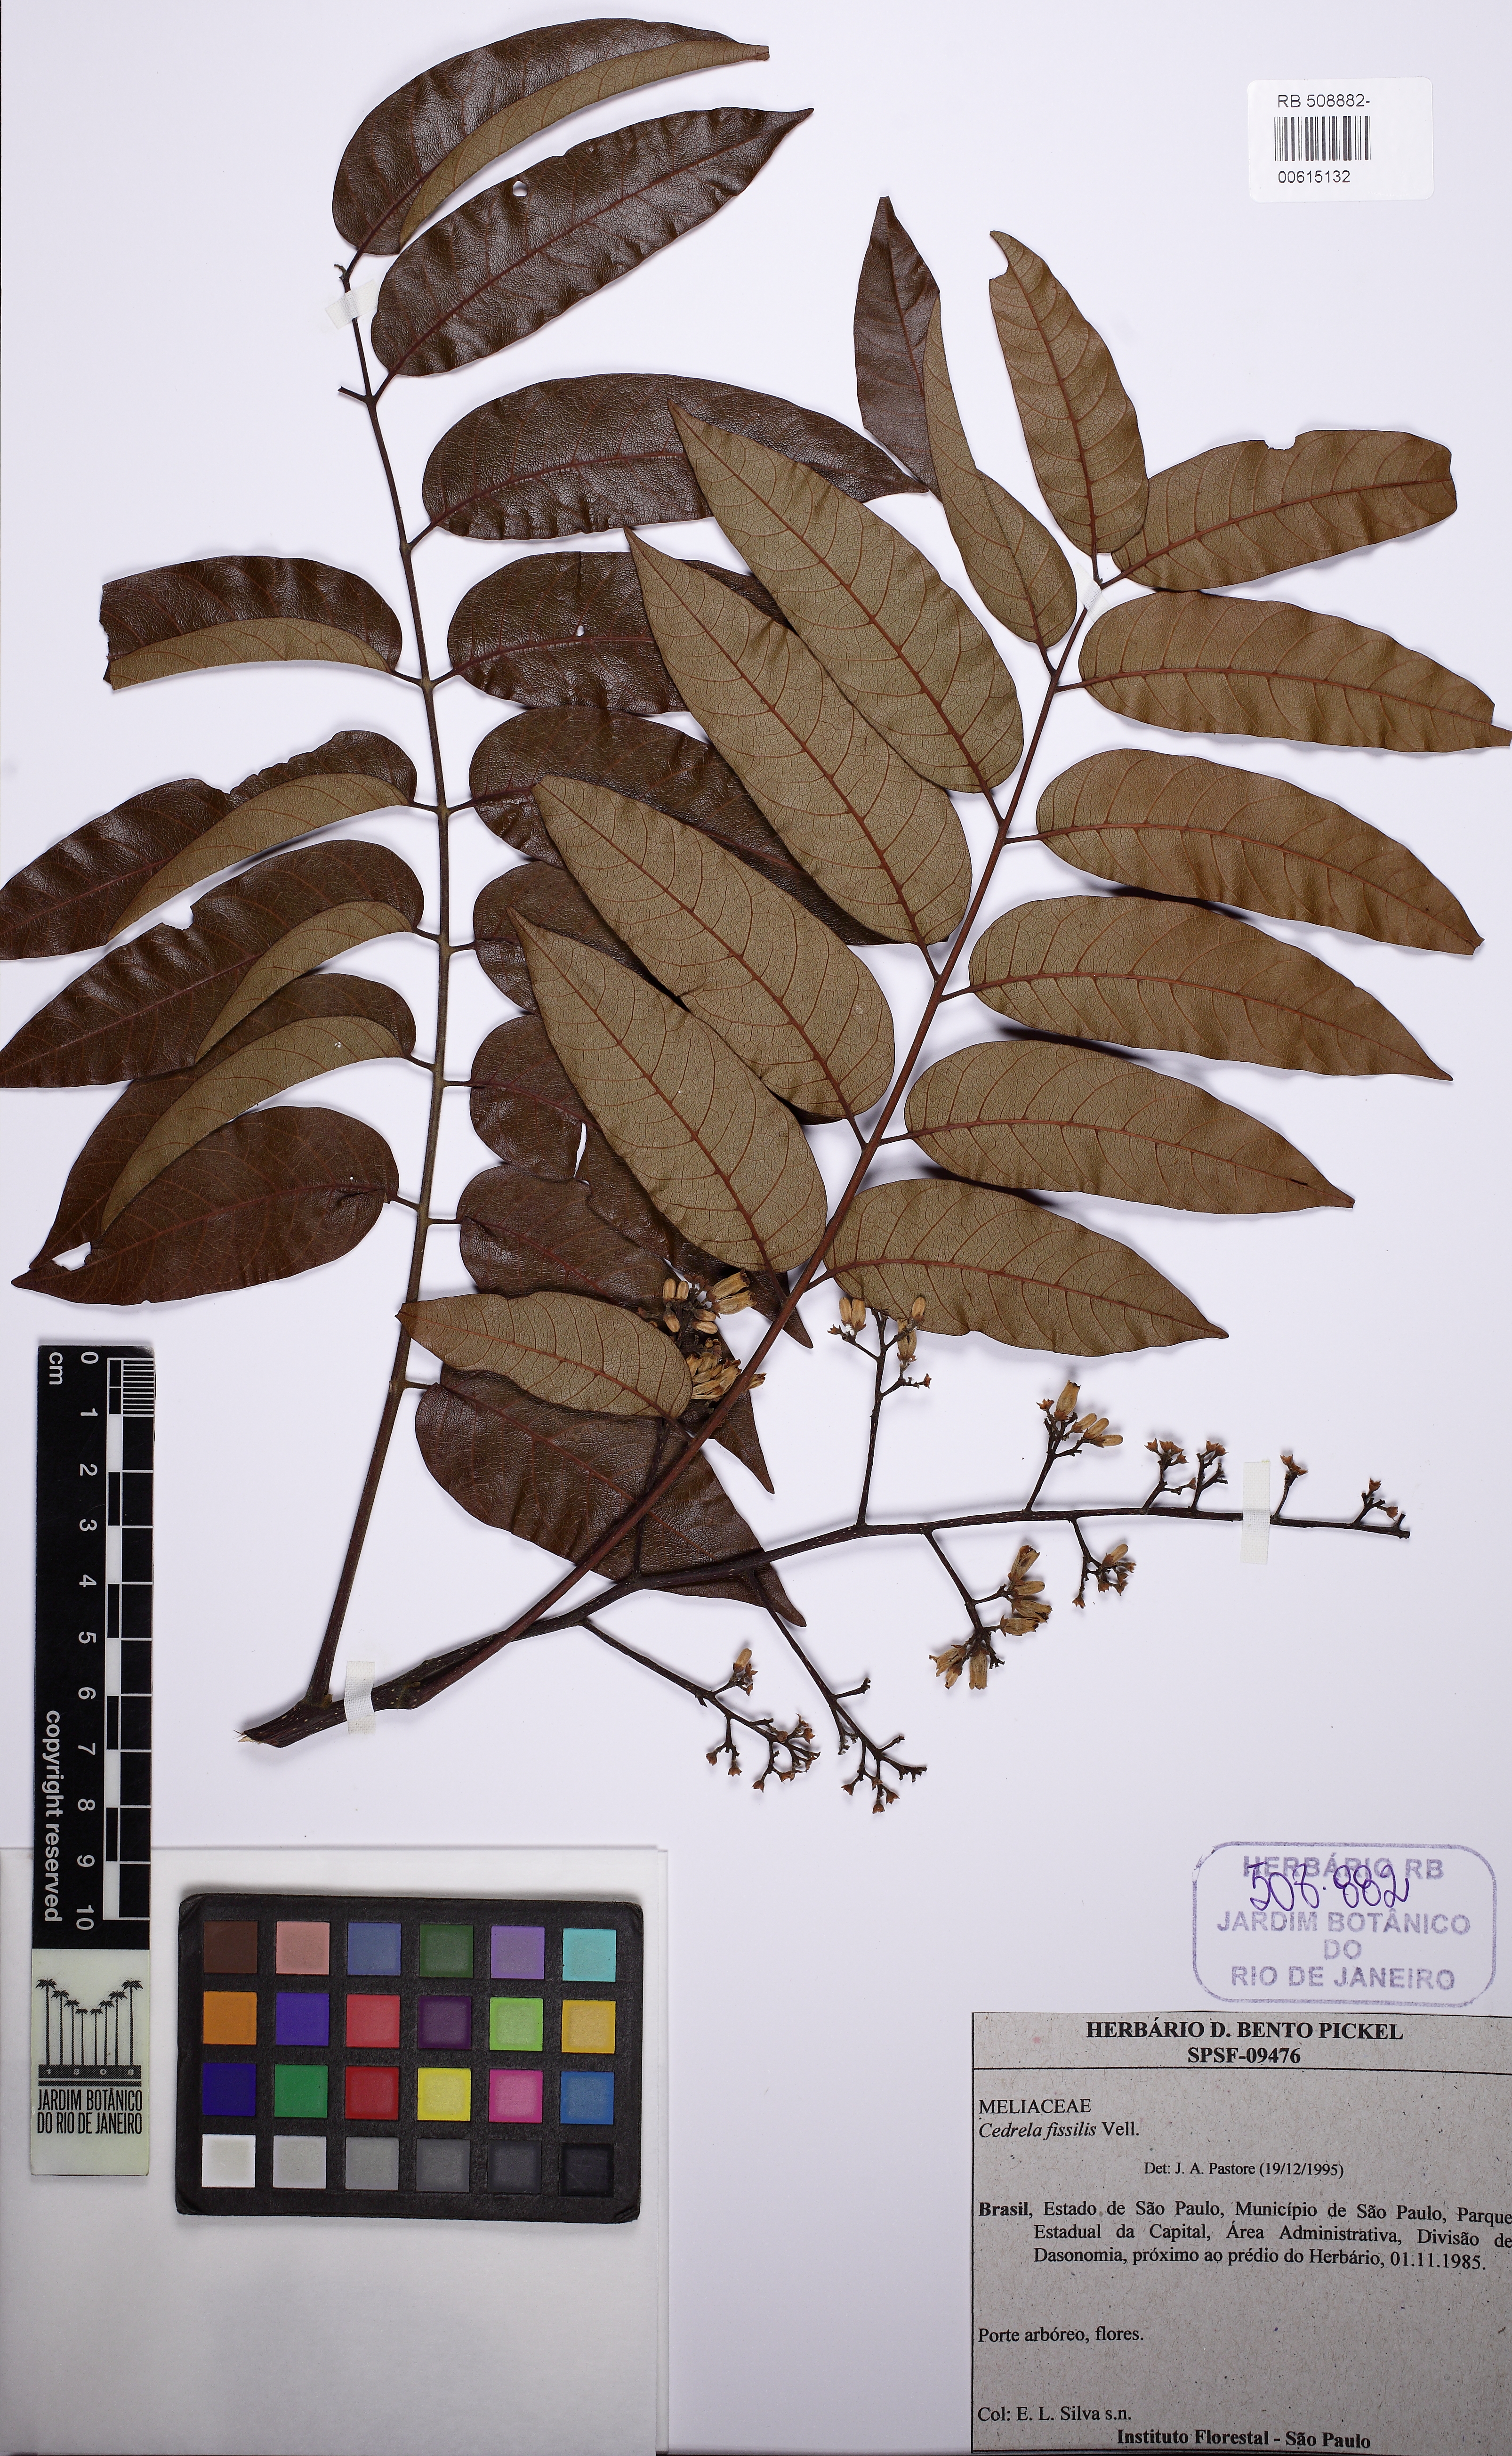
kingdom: Plantae
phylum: Tracheophyta
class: Magnoliopsida
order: Sapindales
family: Meliaceae
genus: Cedrela
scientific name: Cedrela fissilis
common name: Argentine cedar
